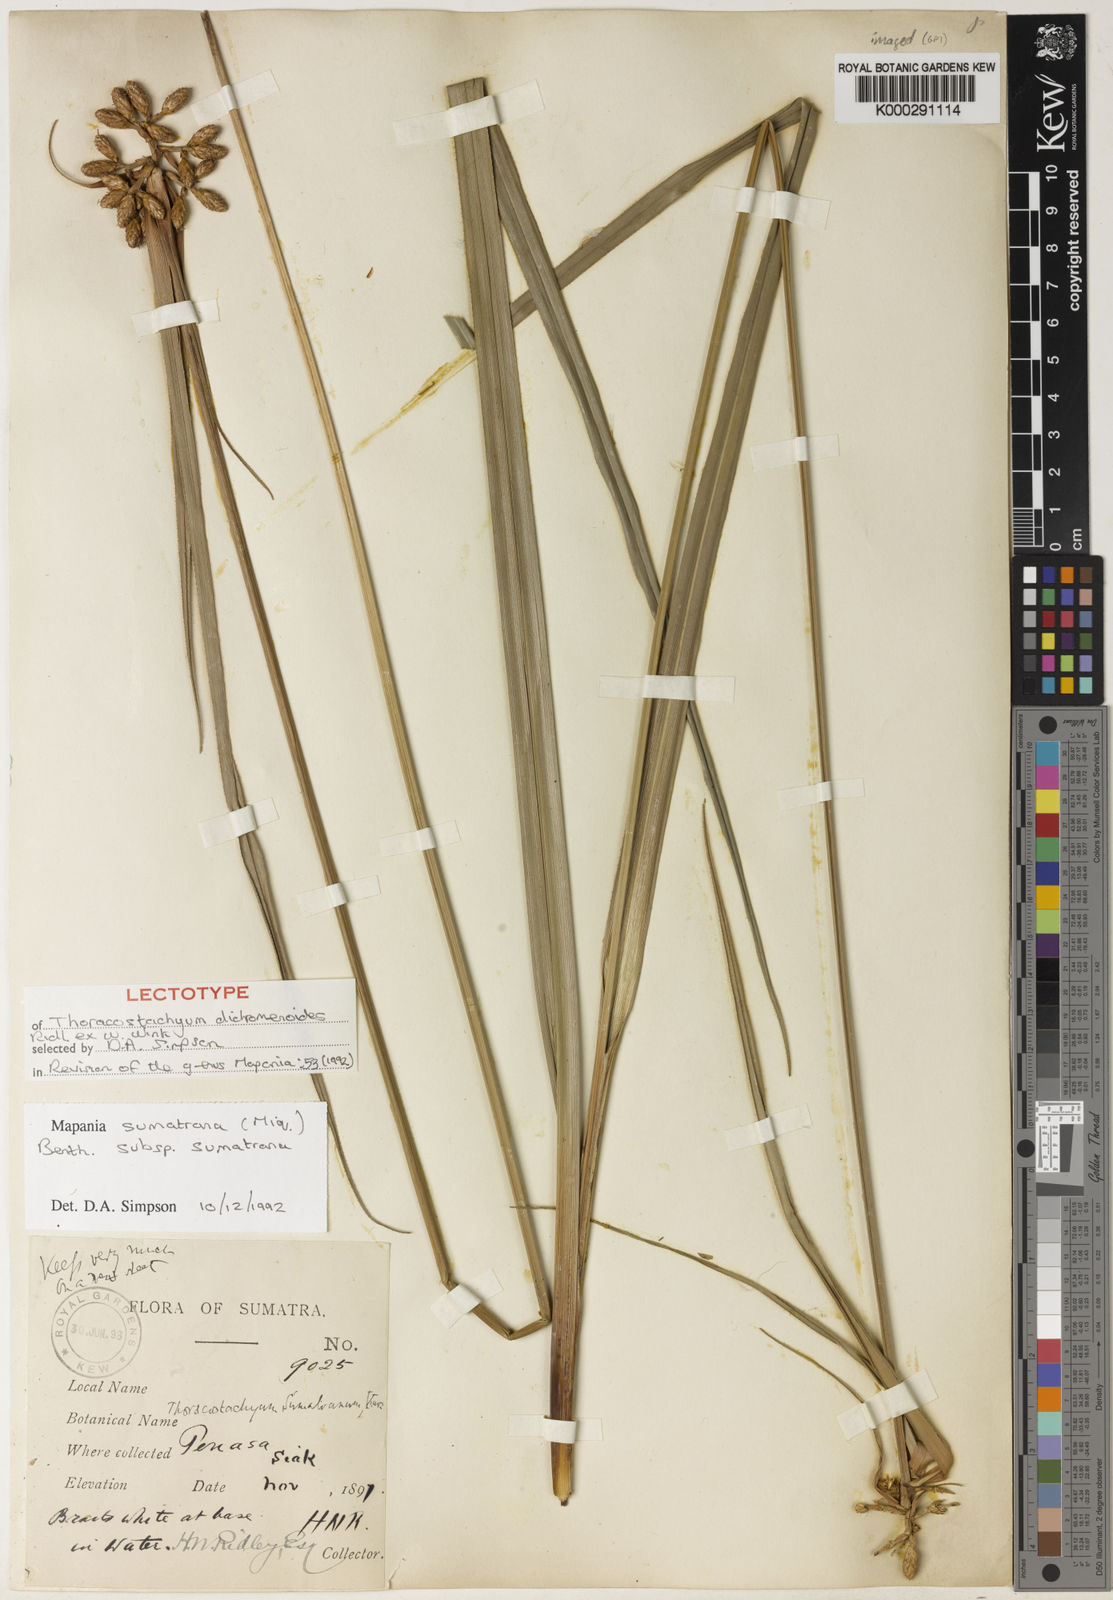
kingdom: Plantae
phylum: Tracheophyta
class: Liliopsida
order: Poales
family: Cyperaceae
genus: Mapania
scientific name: Mapania sumatrana
